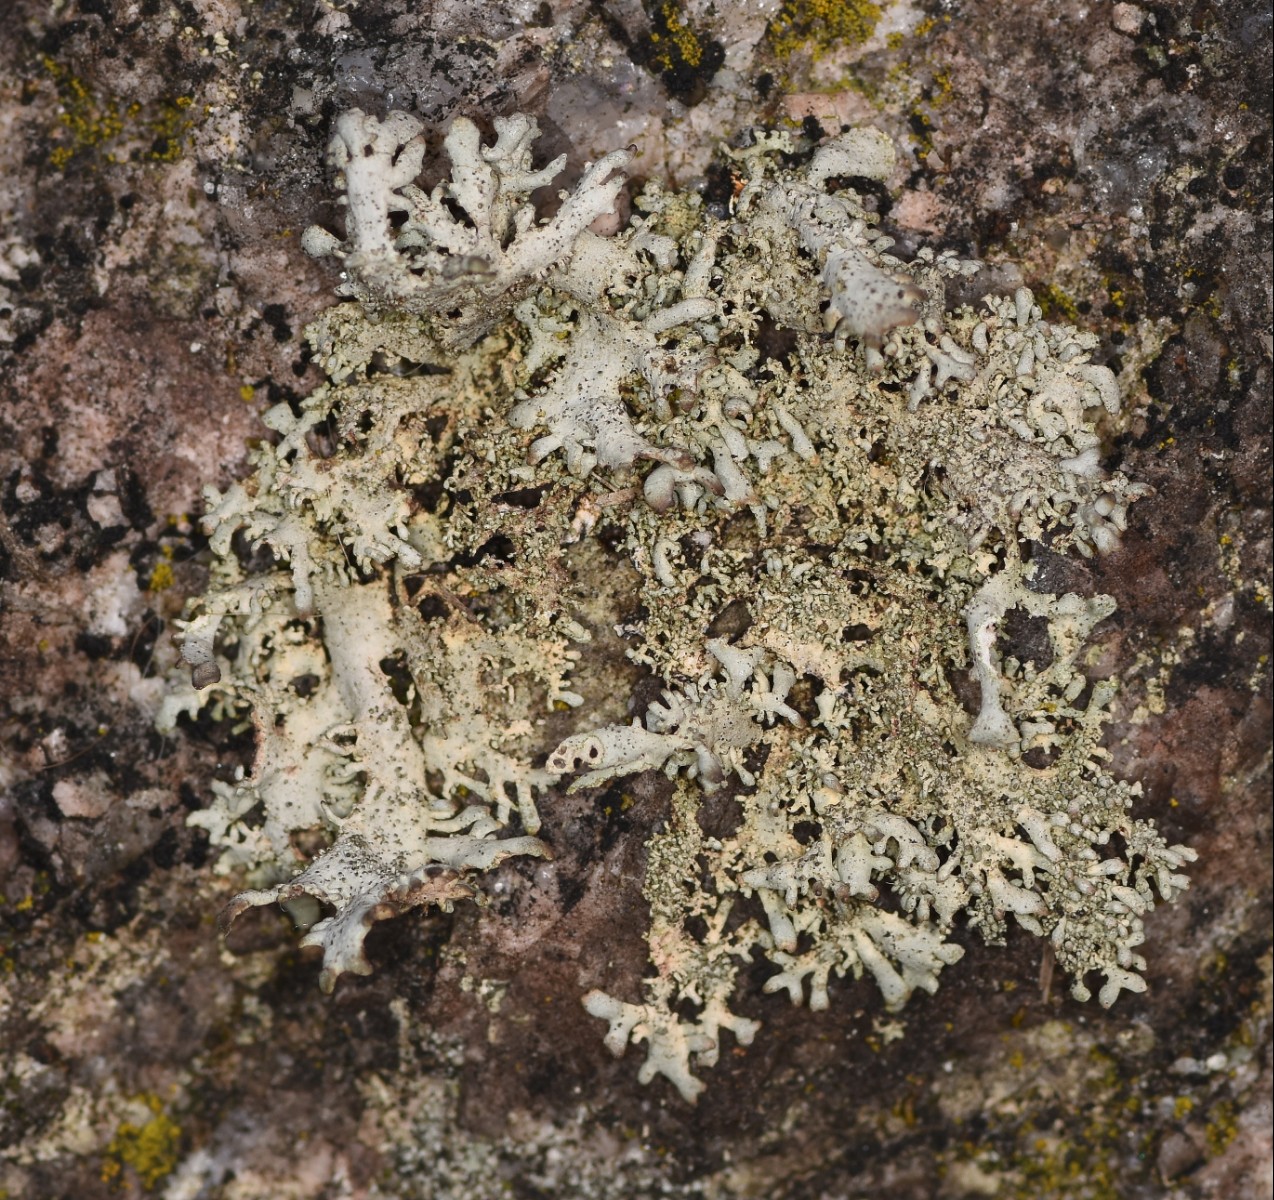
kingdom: Fungi
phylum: Ascomycota
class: Lecanoromycetes
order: Lecanorales
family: Parmeliaceae
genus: Pseudevernia
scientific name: Pseudevernia furfuracea
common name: grå fyrrelav
